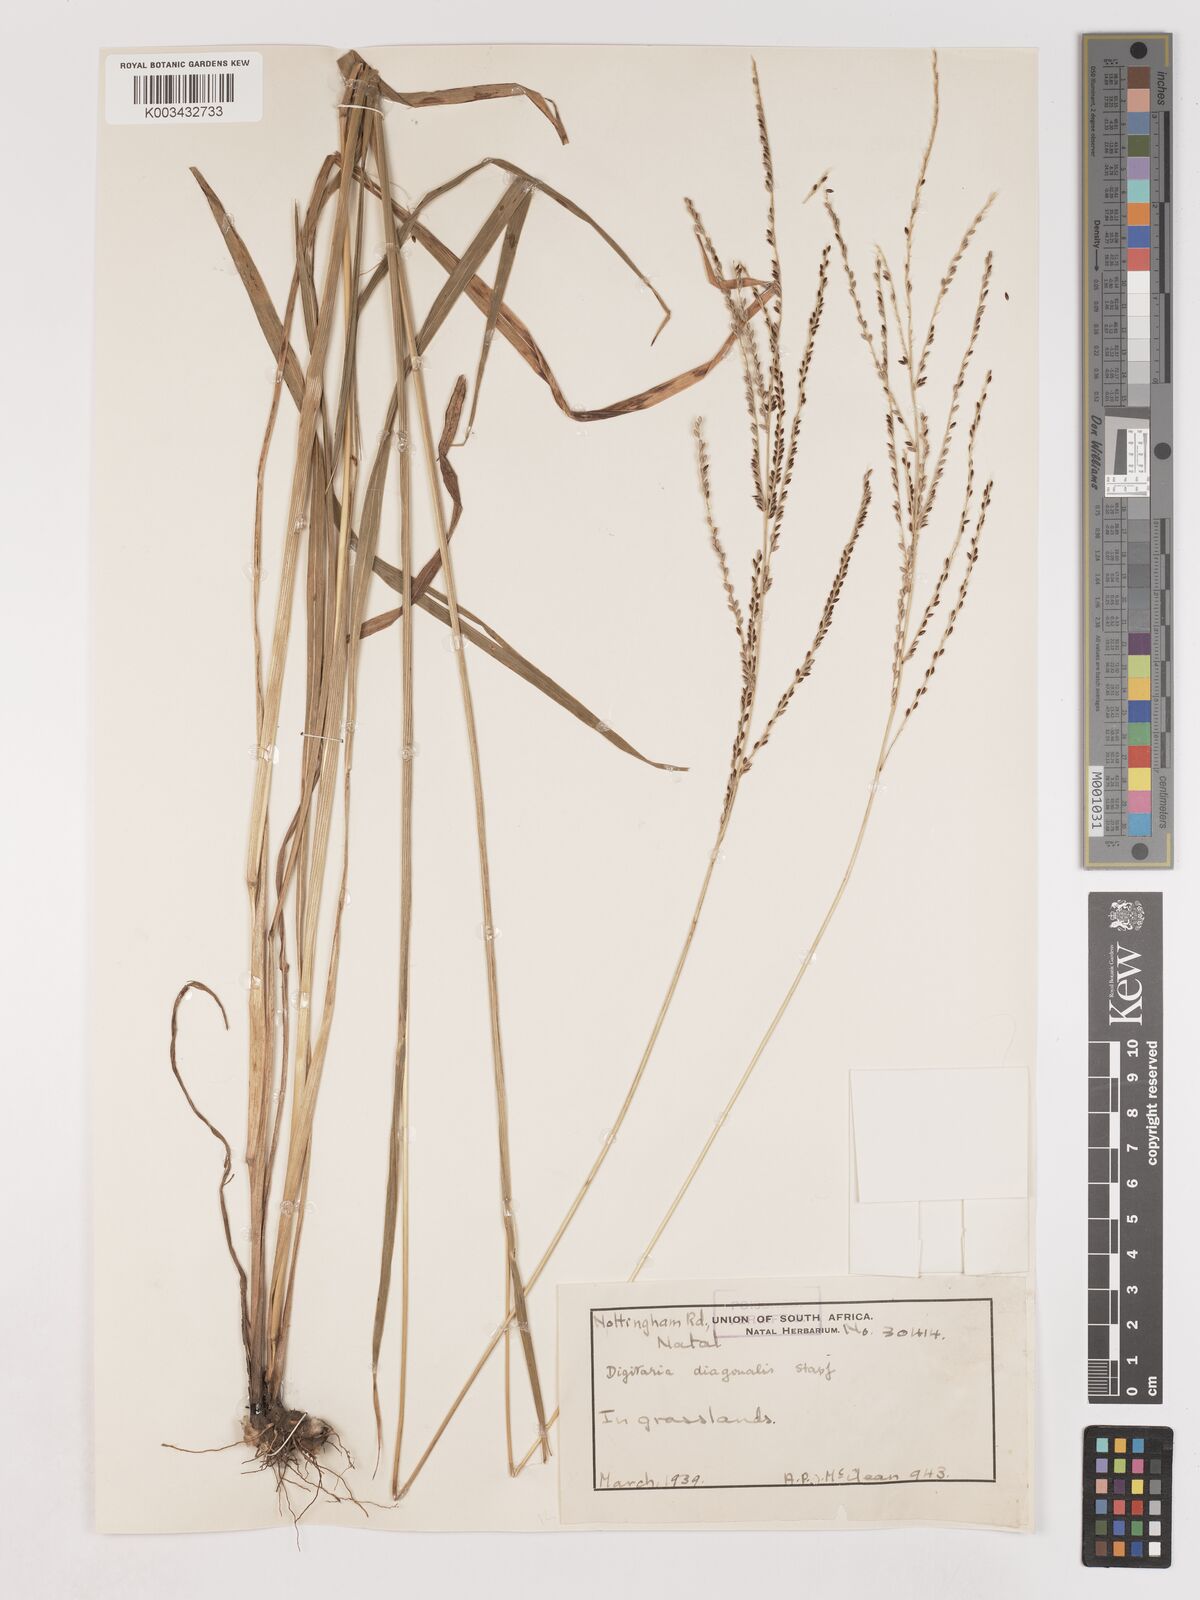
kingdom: Plantae
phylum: Tracheophyta
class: Liliopsida
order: Poales
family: Poaceae
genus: Digitaria
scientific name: Digitaria diagonalis
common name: Brown-seed finger grass
